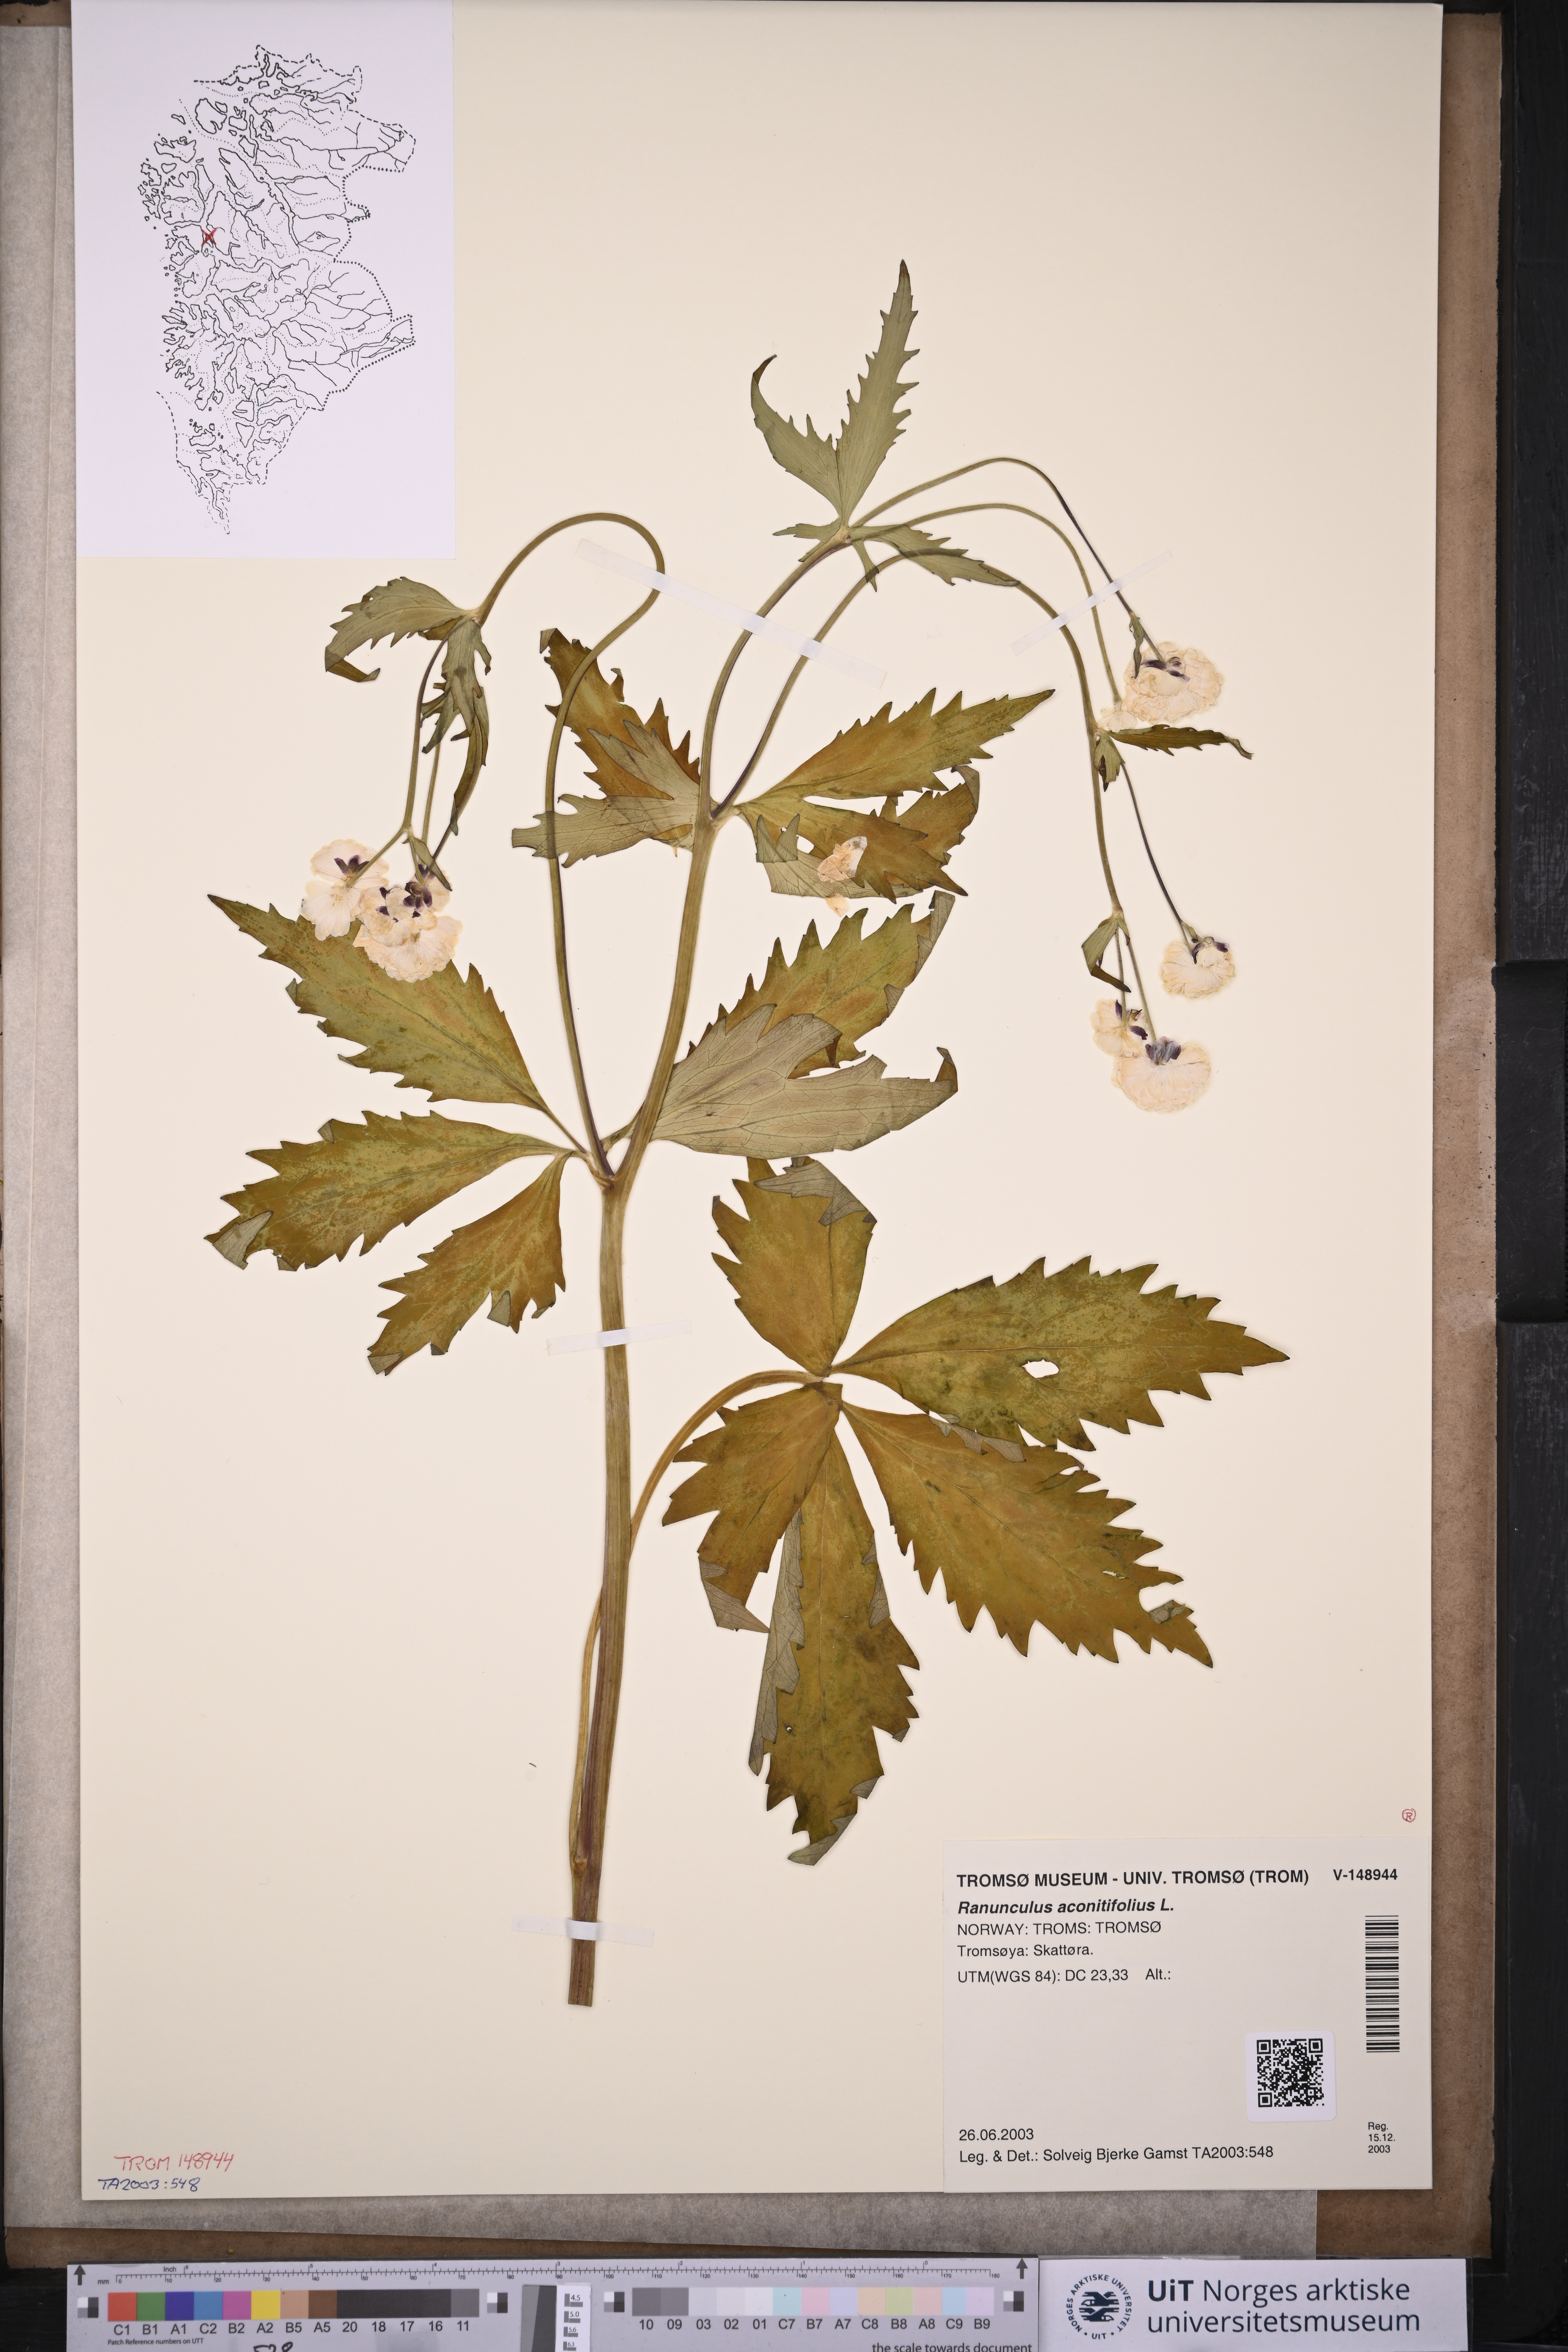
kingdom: Plantae
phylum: Tracheophyta
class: Magnoliopsida
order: Ranunculales
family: Ranunculaceae
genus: Ranunculus
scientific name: Ranunculus aconitifolius
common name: Aconite-leaved buttercup
